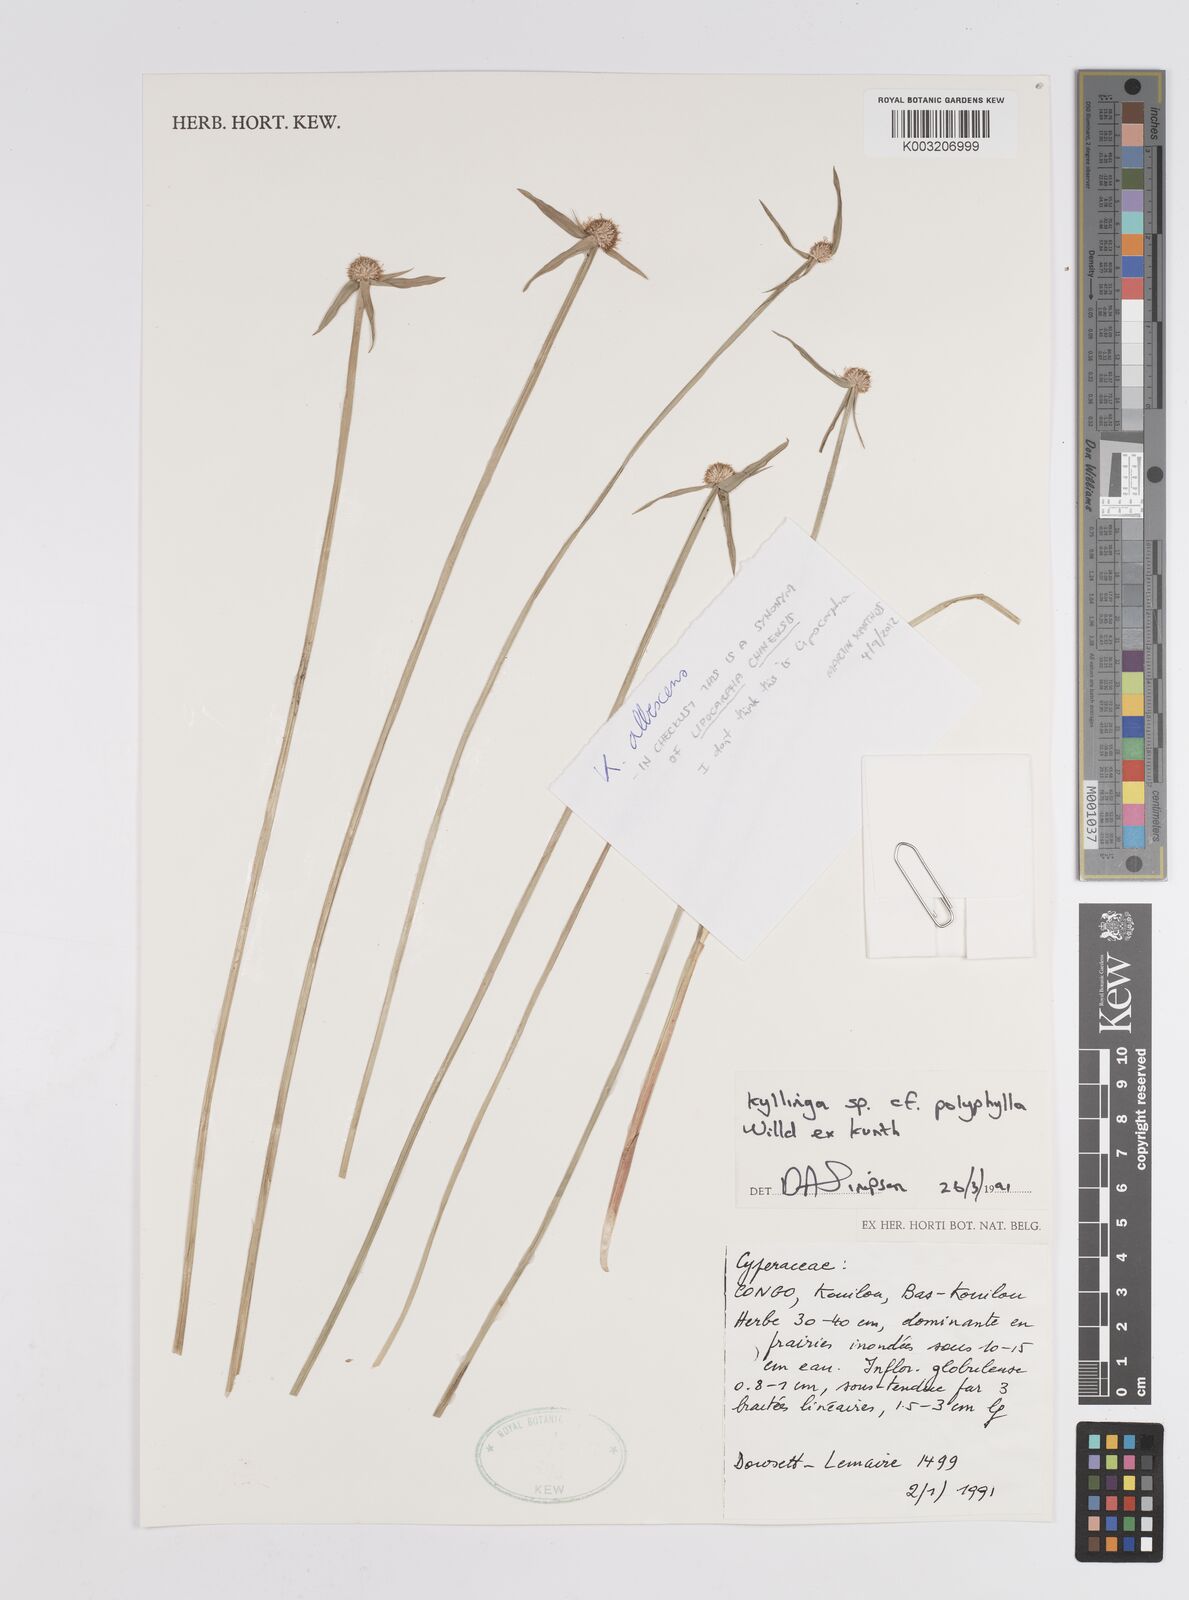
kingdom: Plantae
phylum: Tracheophyta
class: Liliopsida
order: Poales
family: Cyperaceae
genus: Cyperus
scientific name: Cyperus
